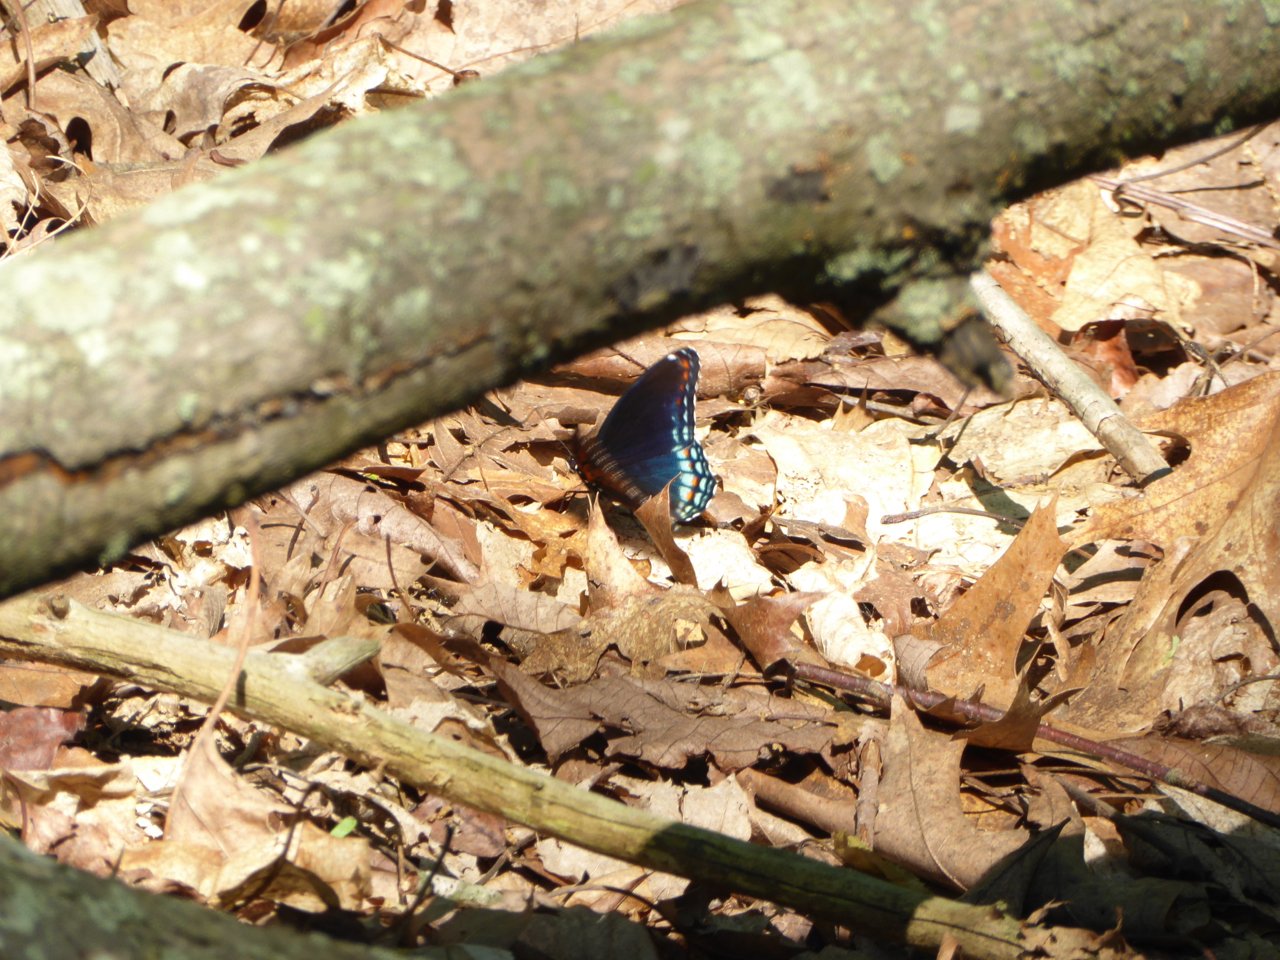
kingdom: Animalia
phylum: Arthropoda
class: Insecta
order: Lepidoptera
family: Nymphalidae
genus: Limenitis
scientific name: Limenitis astyanax
